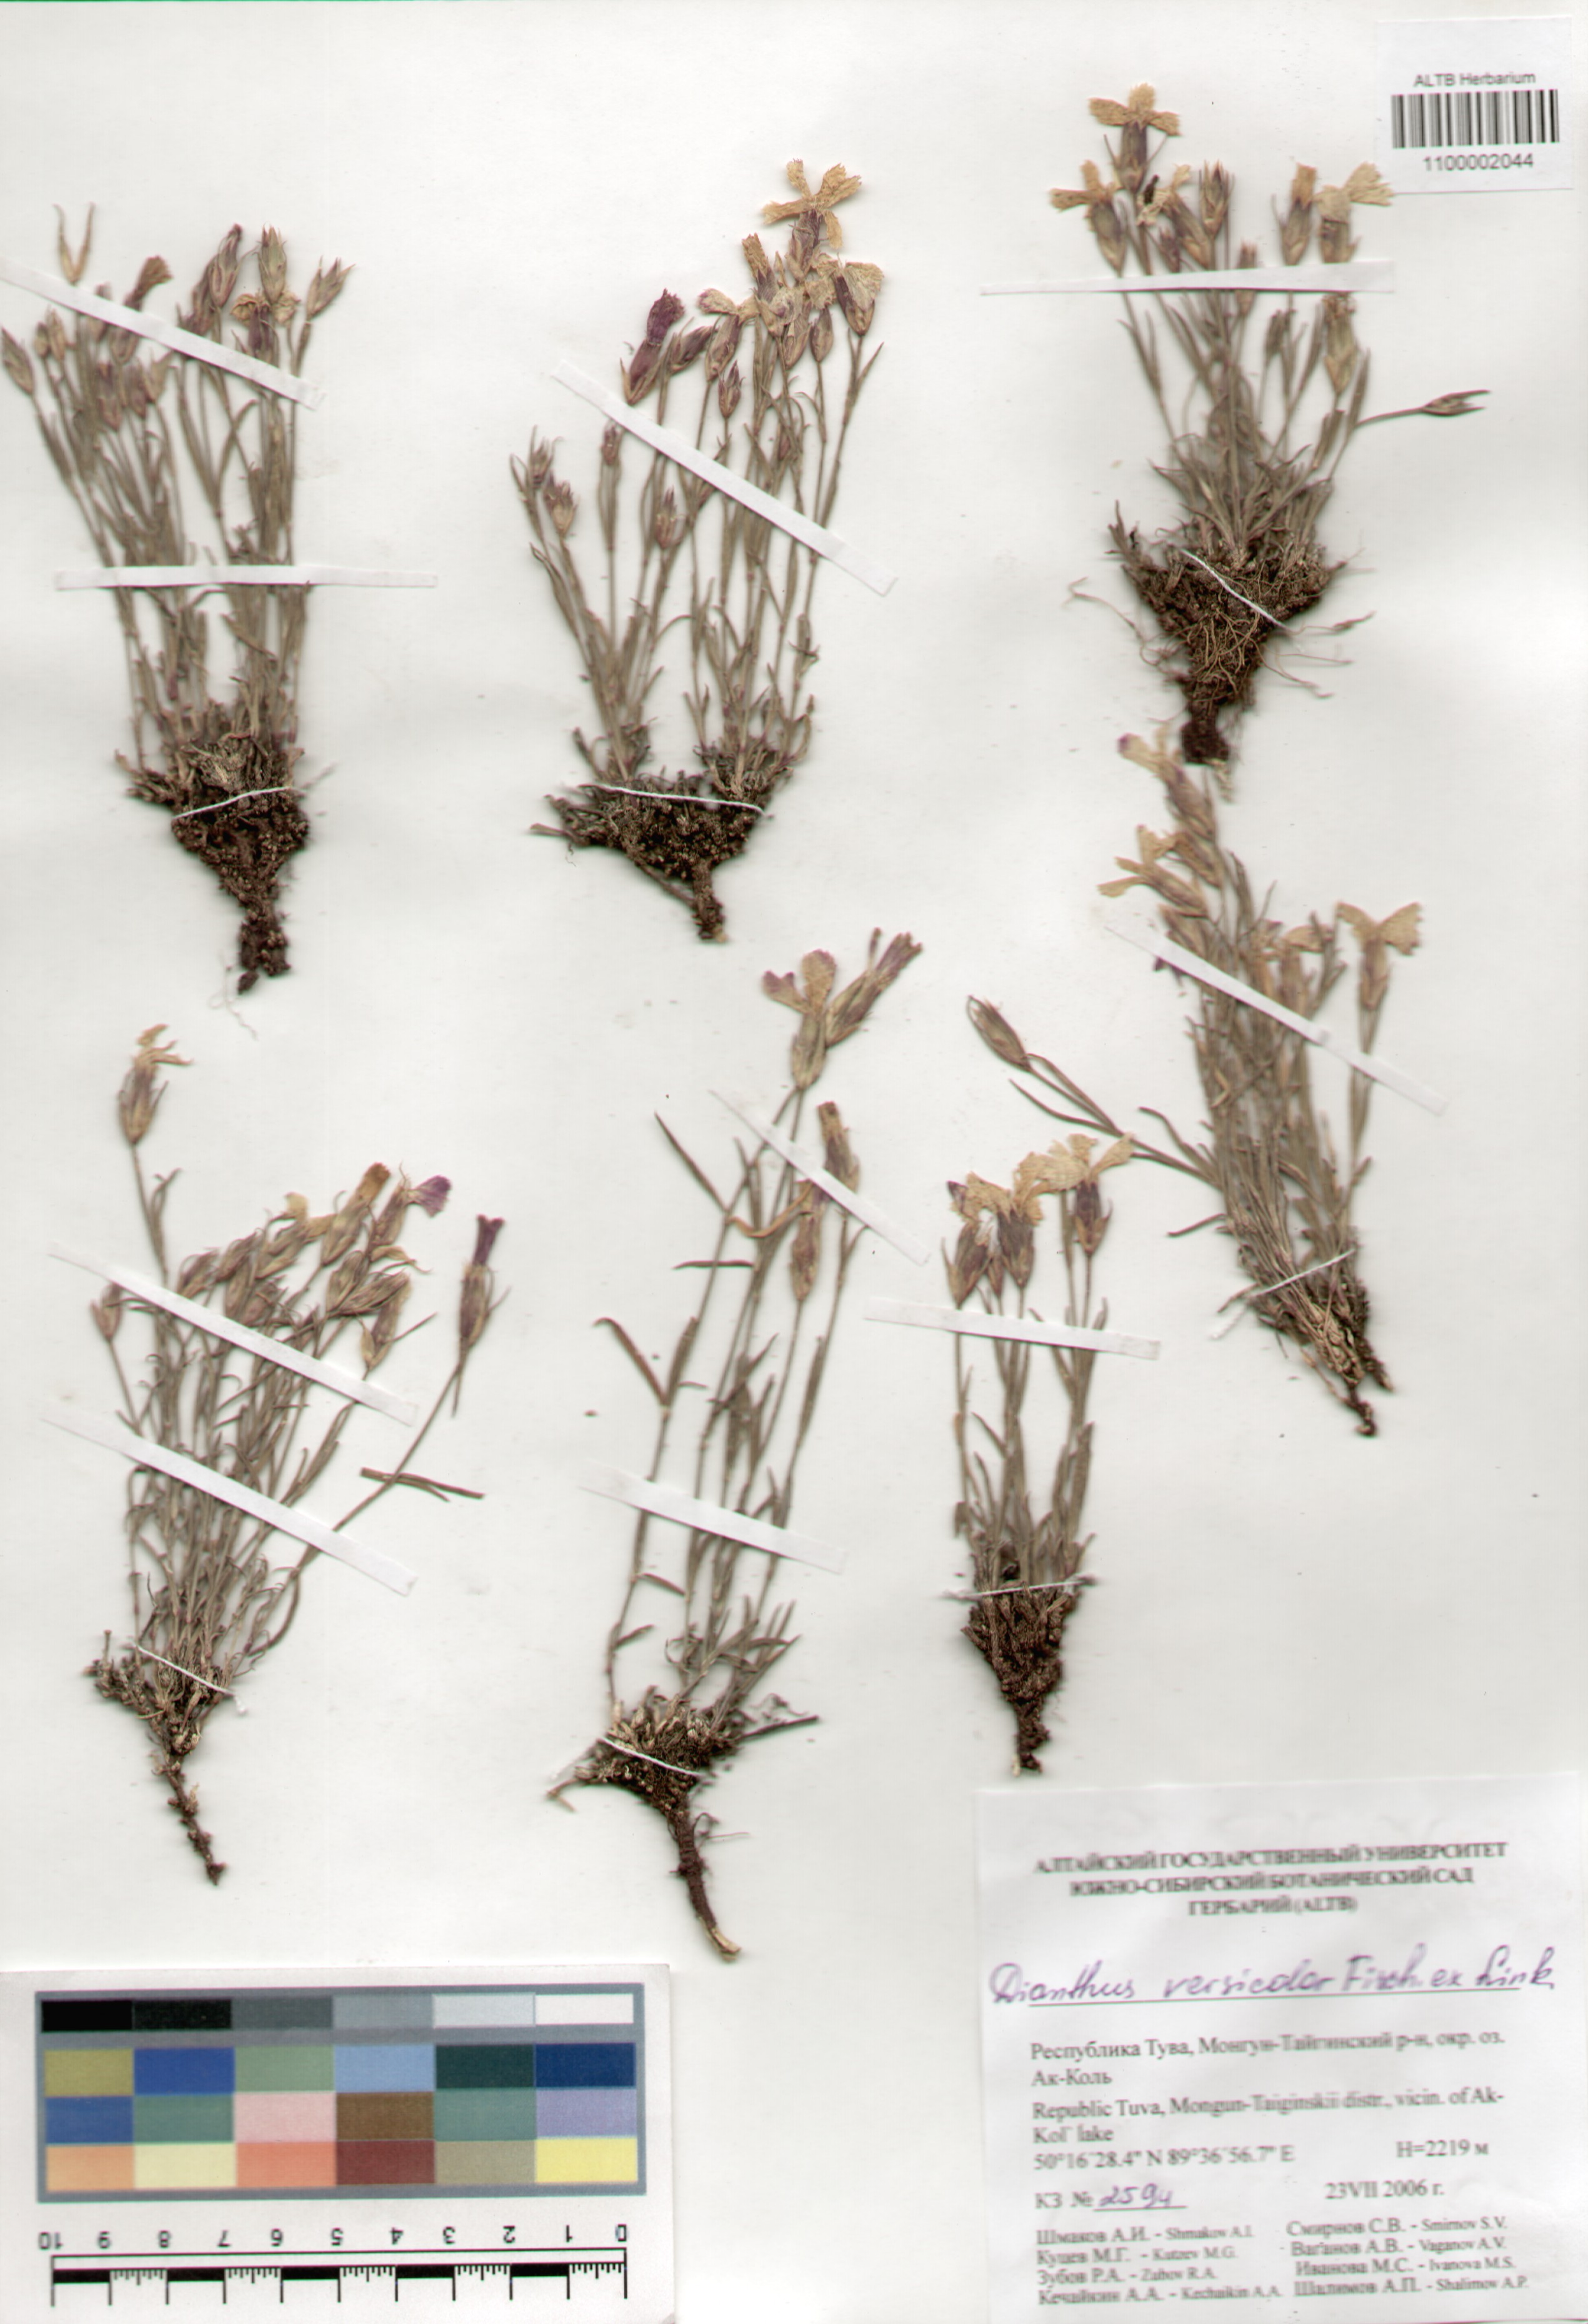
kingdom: Plantae
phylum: Tracheophyta
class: Magnoliopsida
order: Caryophyllales
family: Caryophyllaceae
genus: Dianthus
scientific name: Dianthus chinensis
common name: Rainbow pink
